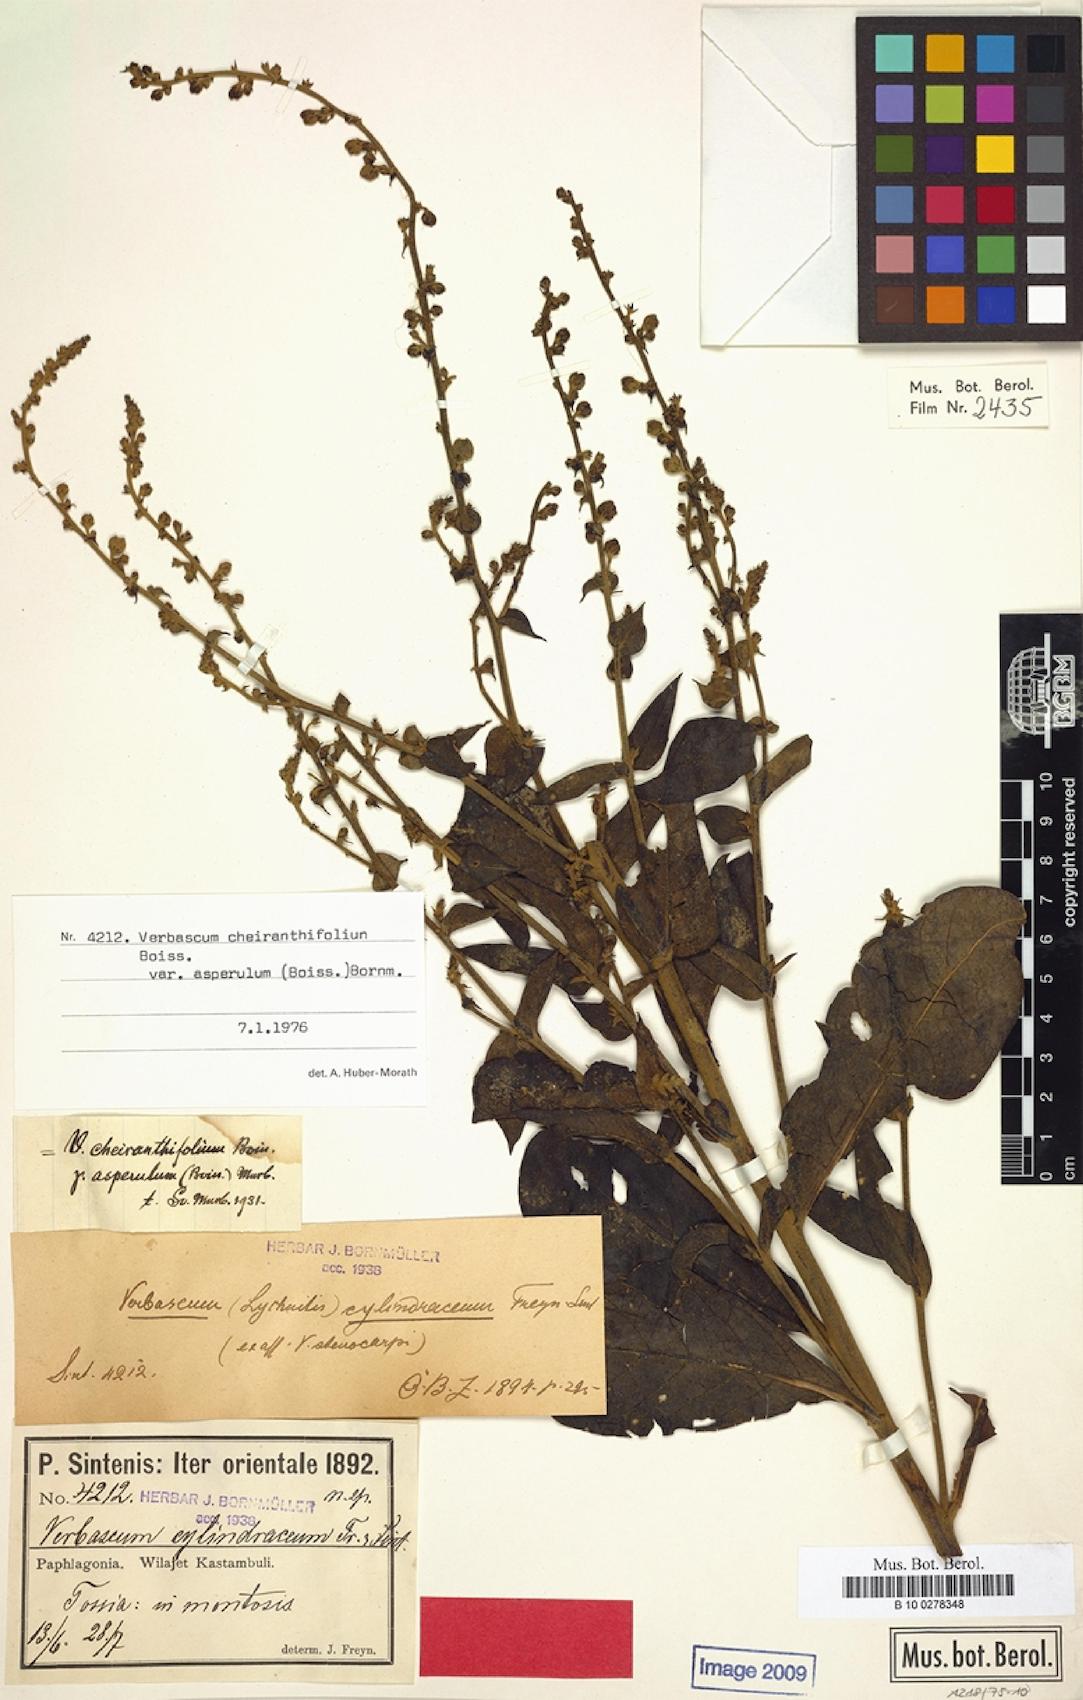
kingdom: Plantae
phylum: Tracheophyta
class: Magnoliopsida
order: Lamiales
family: Scrophulariaceae
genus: Verbascum
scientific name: Verbascum cheiranthifollum
